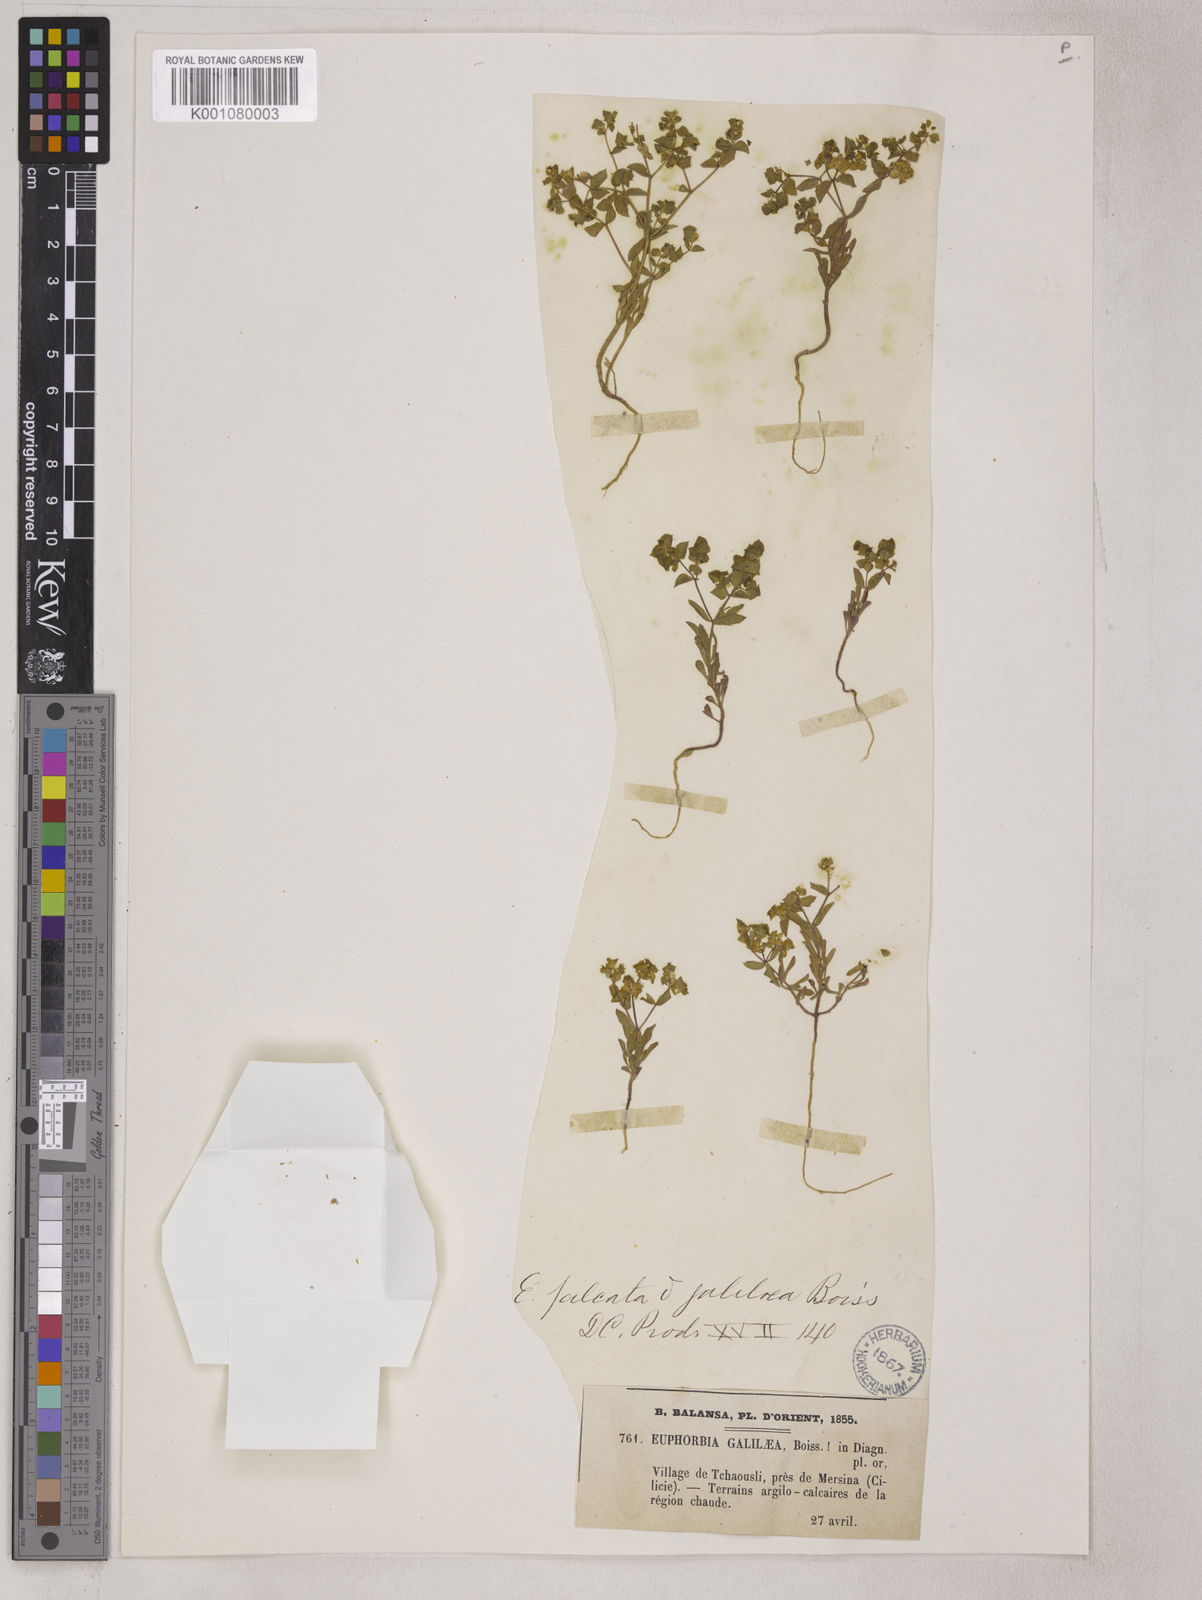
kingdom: Plantae
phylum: Tracheophyta
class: Magnoliopsida
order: Malpighiales
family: Euphorbiaceae
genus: Euphorbia
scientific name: Euphorbia falcata
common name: Sickle spurge
